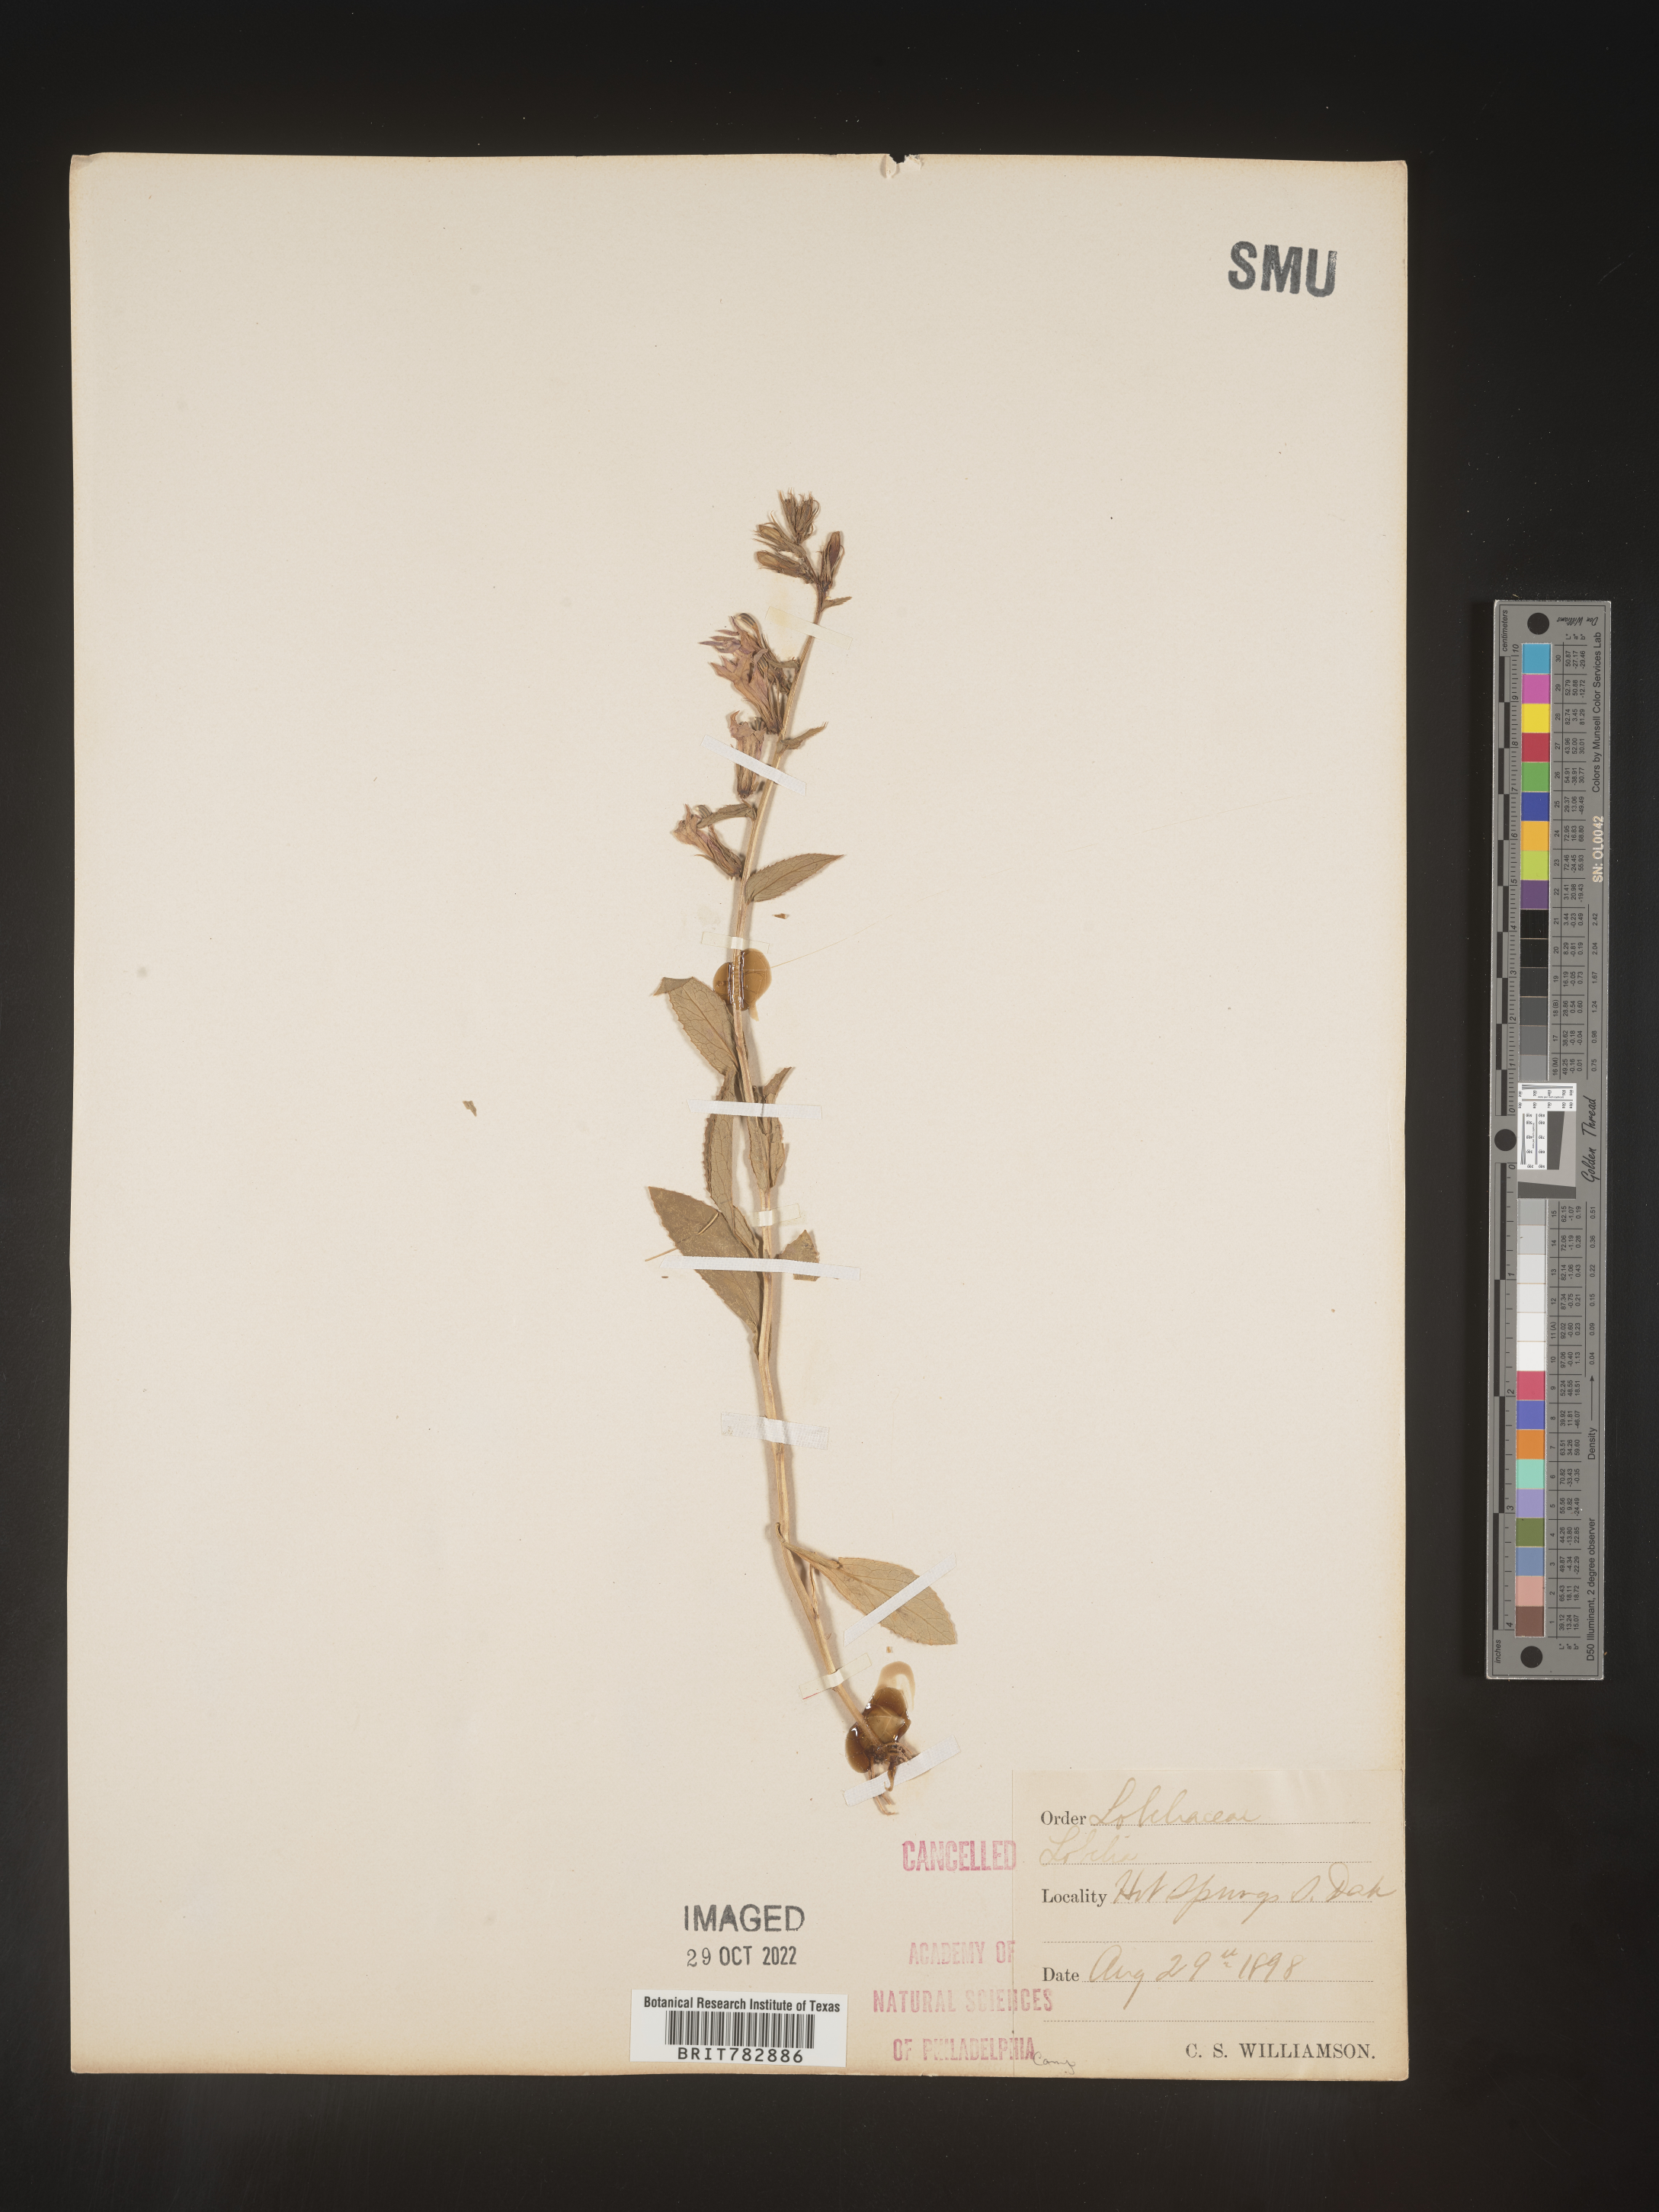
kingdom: Plantae
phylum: Tracheophyta
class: Magnoliopsida
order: Asterales
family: Campanulaceae
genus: Lobelia
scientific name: Lobelia
